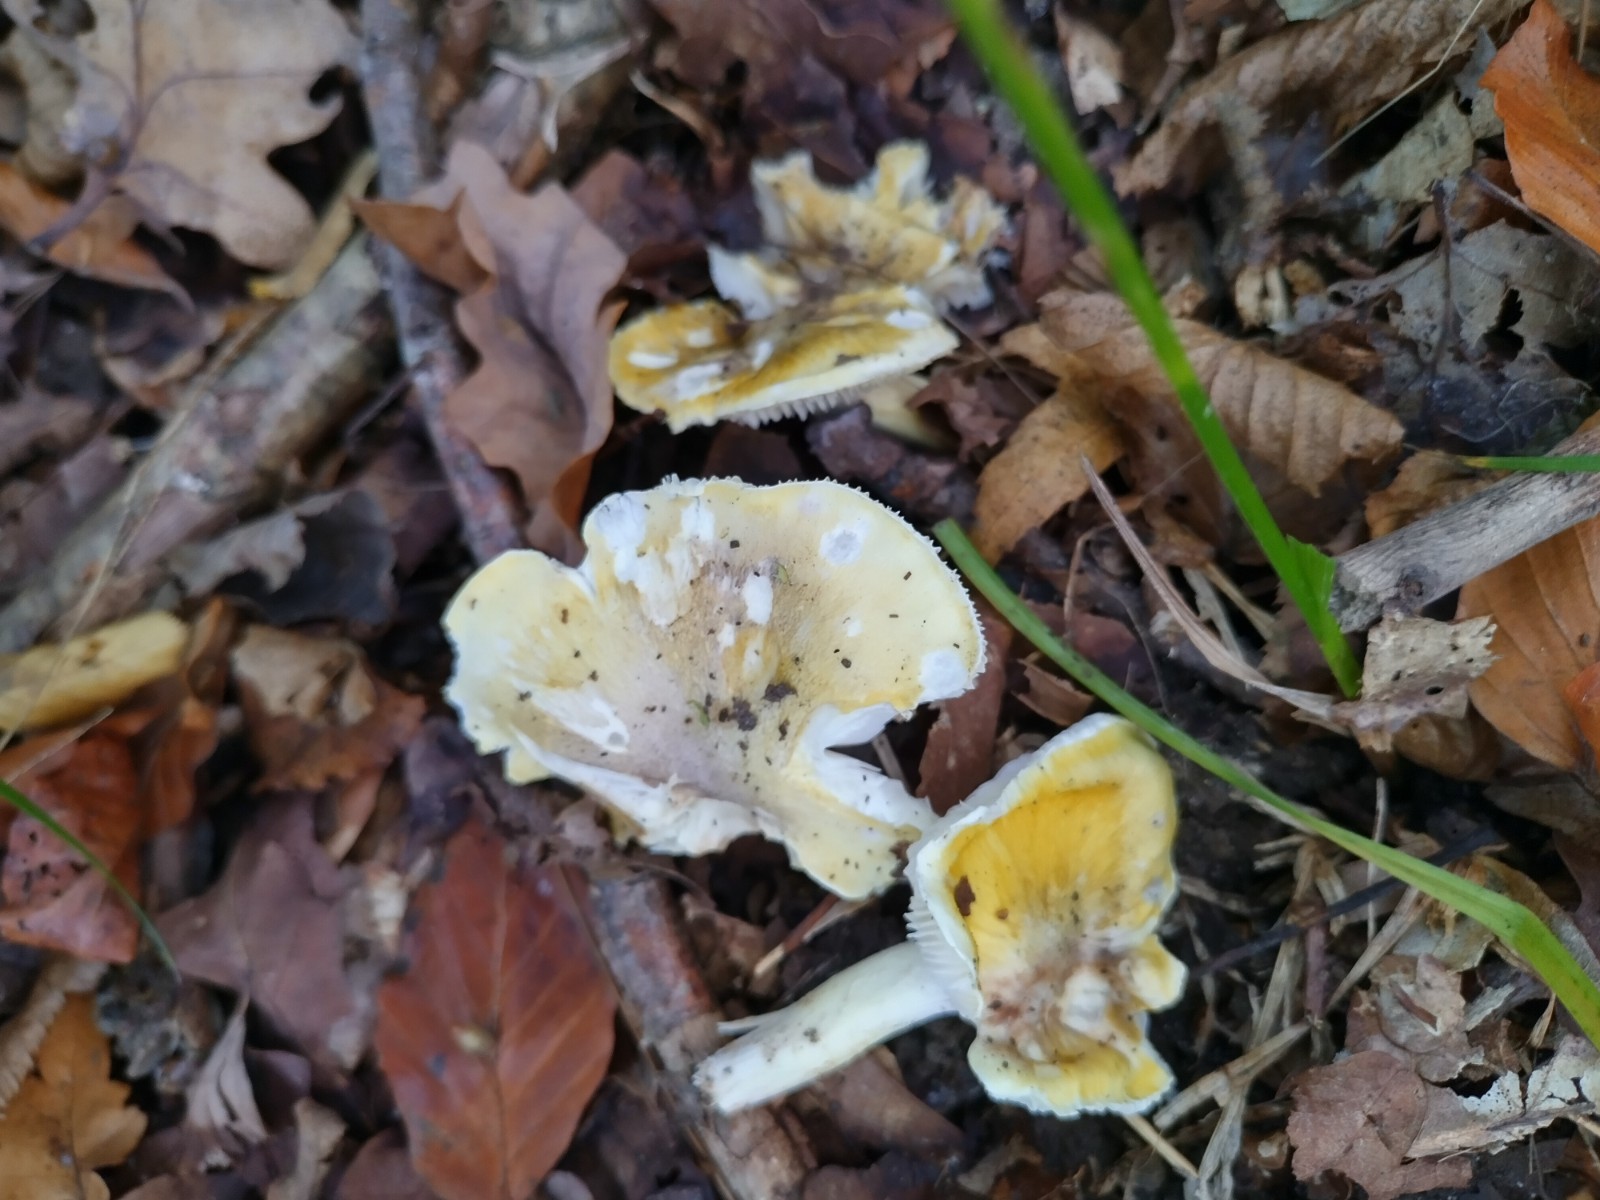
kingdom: Fungi
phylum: Basidiomycota
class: Agaricomycetes
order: Agaricales
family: Tricholomataceae
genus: Tricholoma
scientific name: Tricholoma sejunctum
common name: grøngul ridderhat
